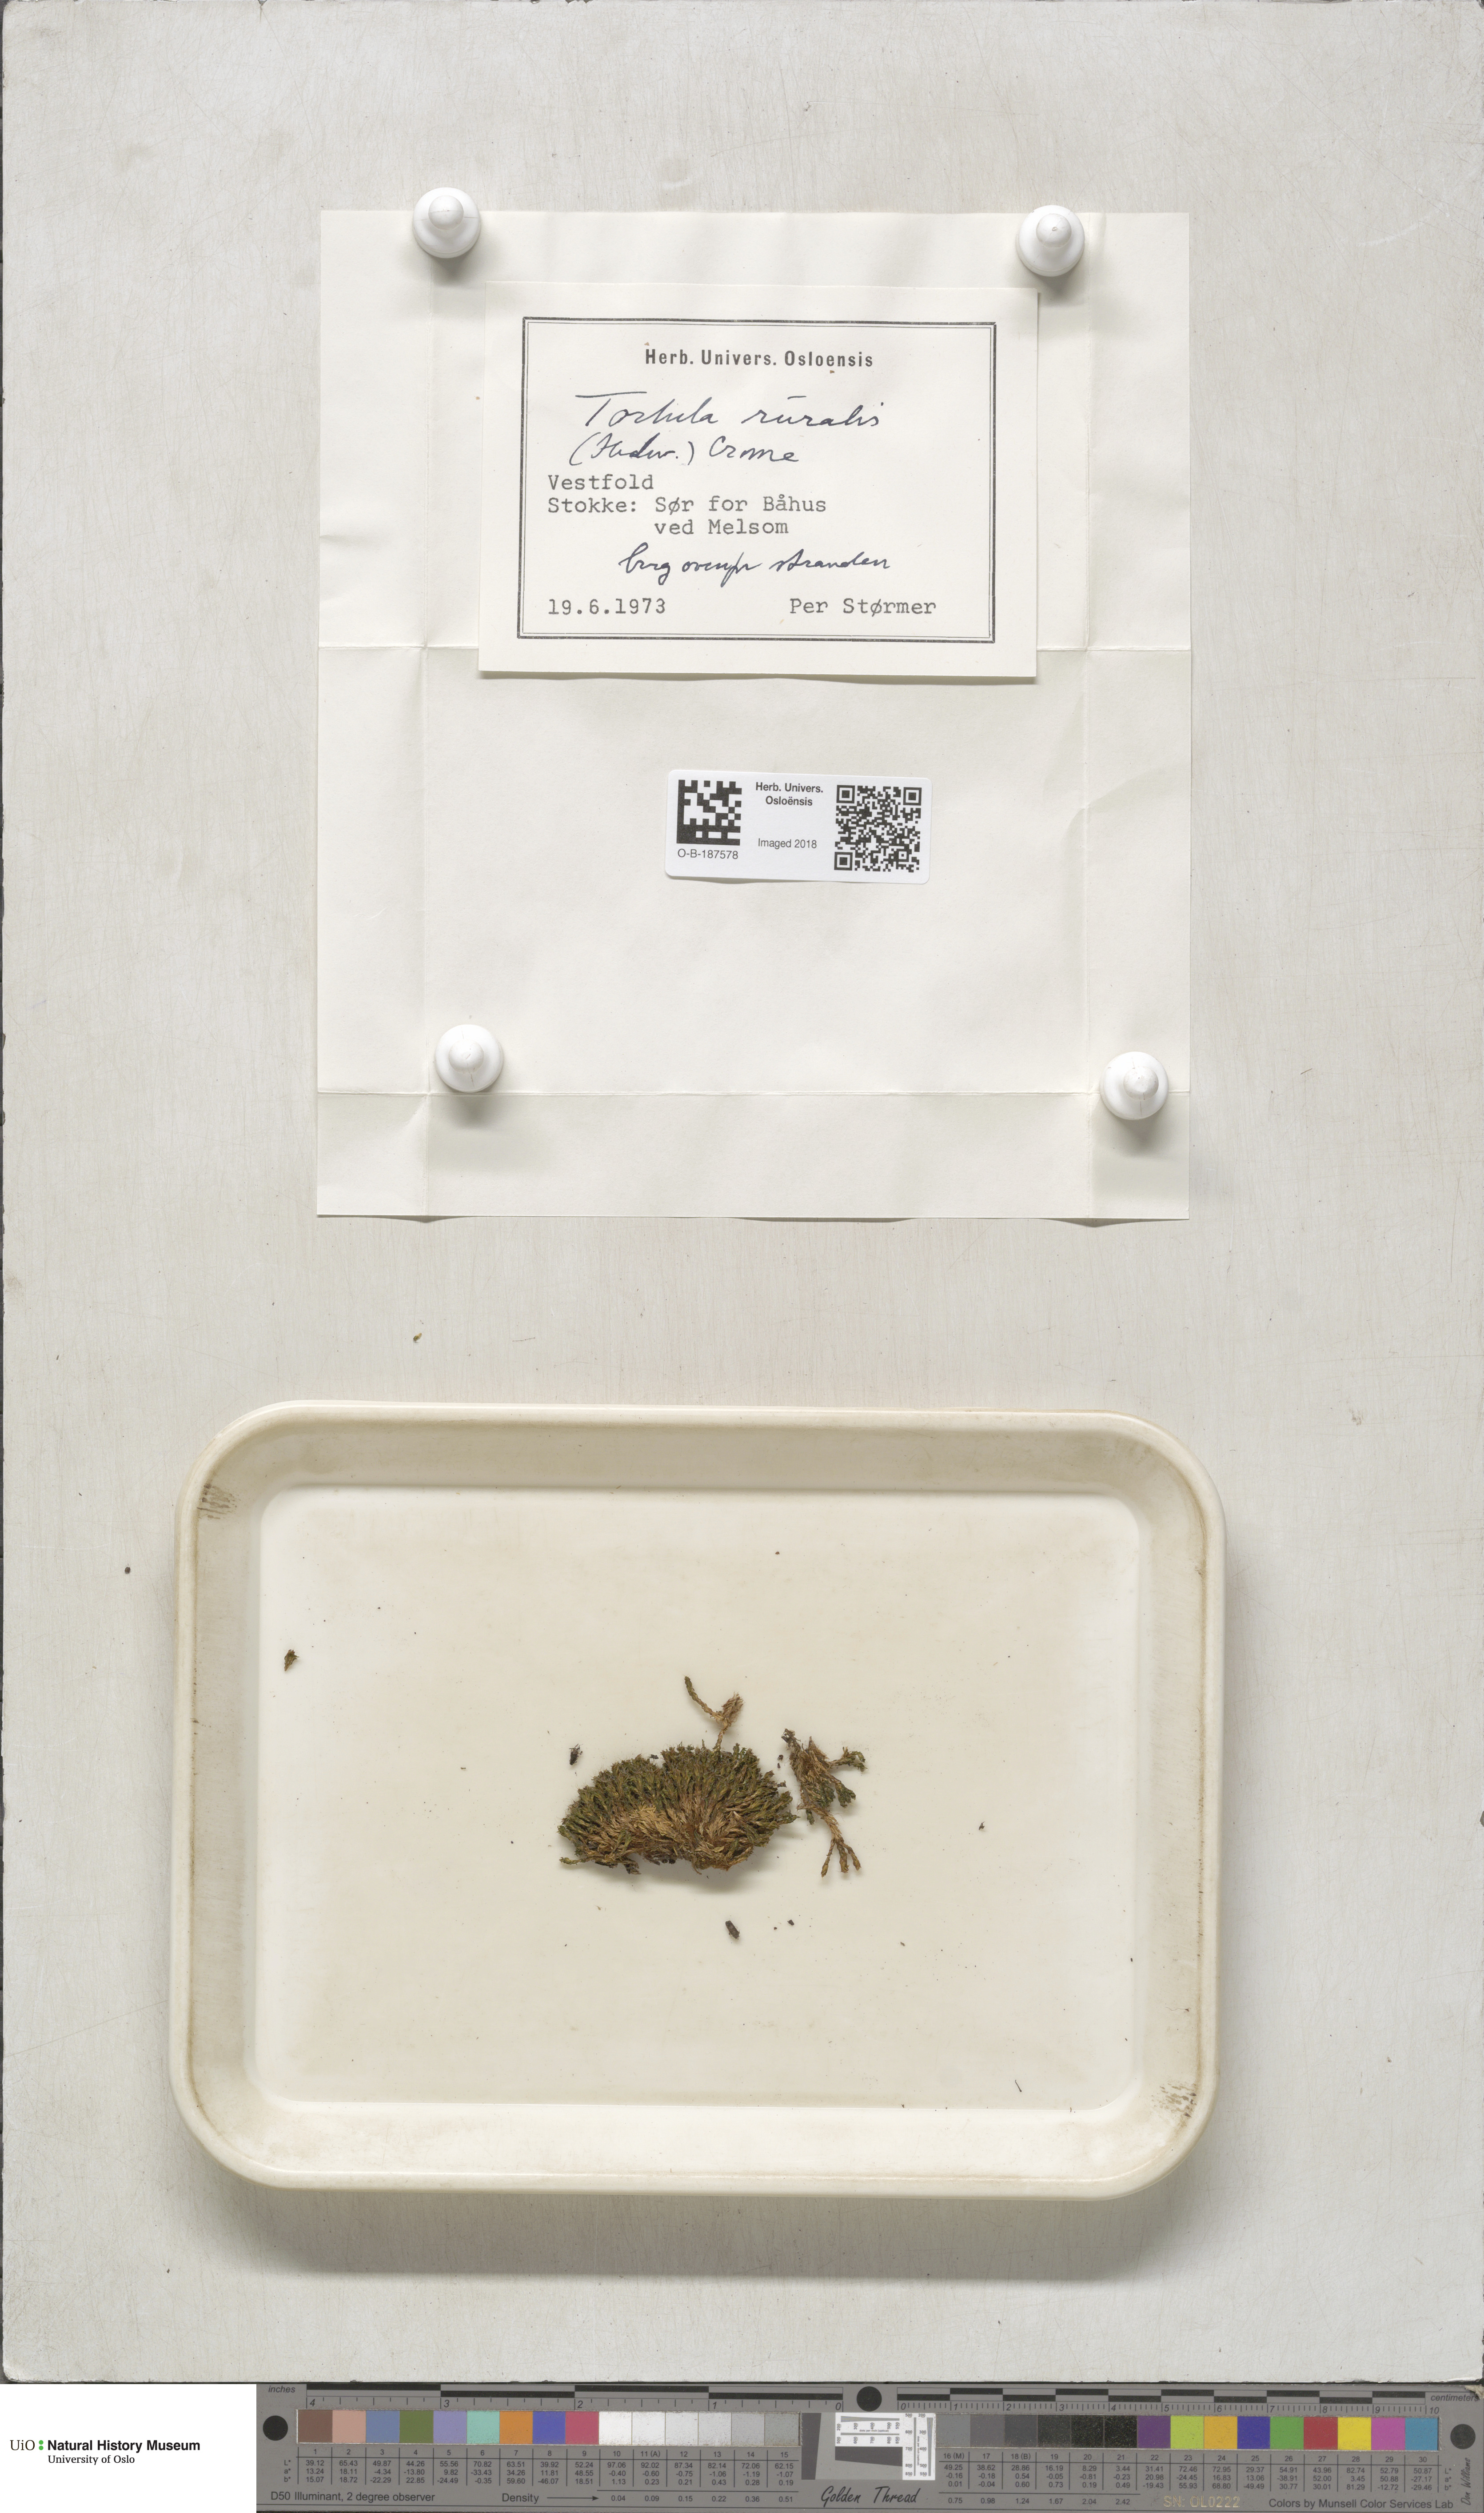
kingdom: Plantae
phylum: Bryophyta
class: Bryopsida
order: Pottiales
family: Pottiaceae
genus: Syntrichia
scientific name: Syntrichia ruralis
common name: Sidewalk screw moss
